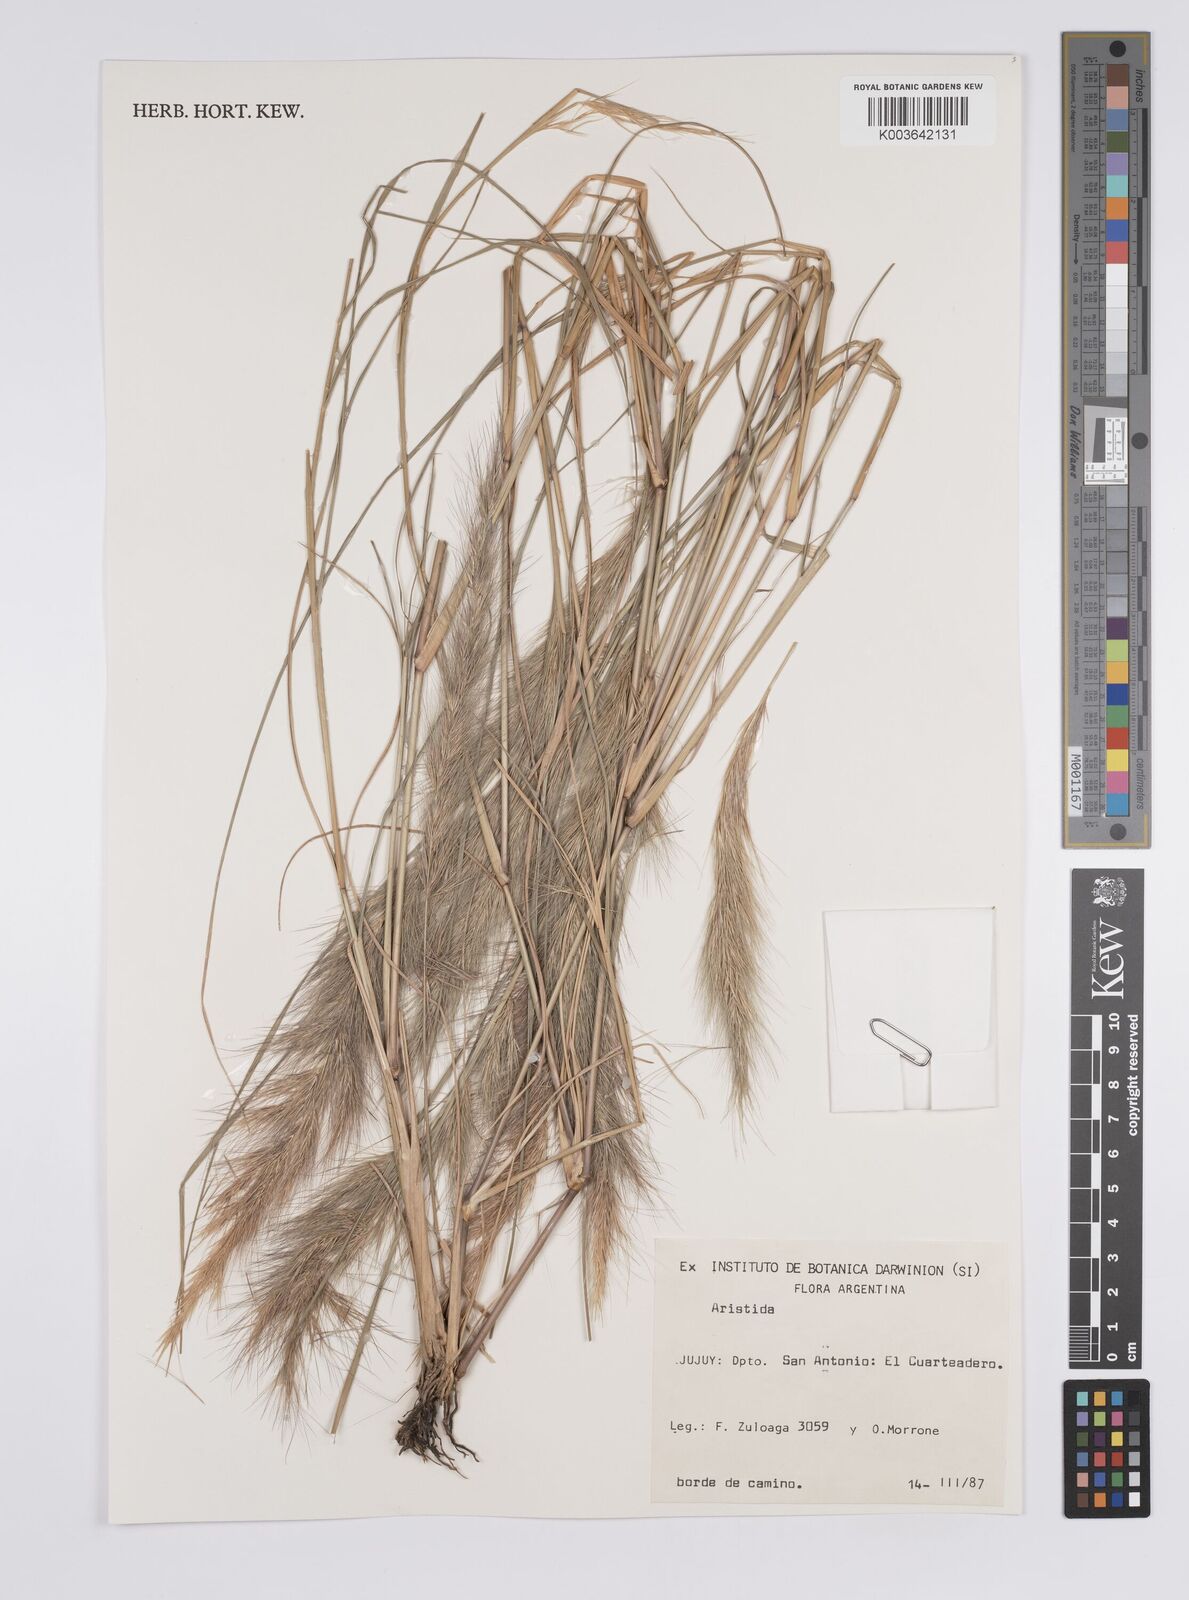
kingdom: Plantae
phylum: Tracheophyta
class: Liliopsida
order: Poales
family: Poaceae
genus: Aristida
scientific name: Aristida
